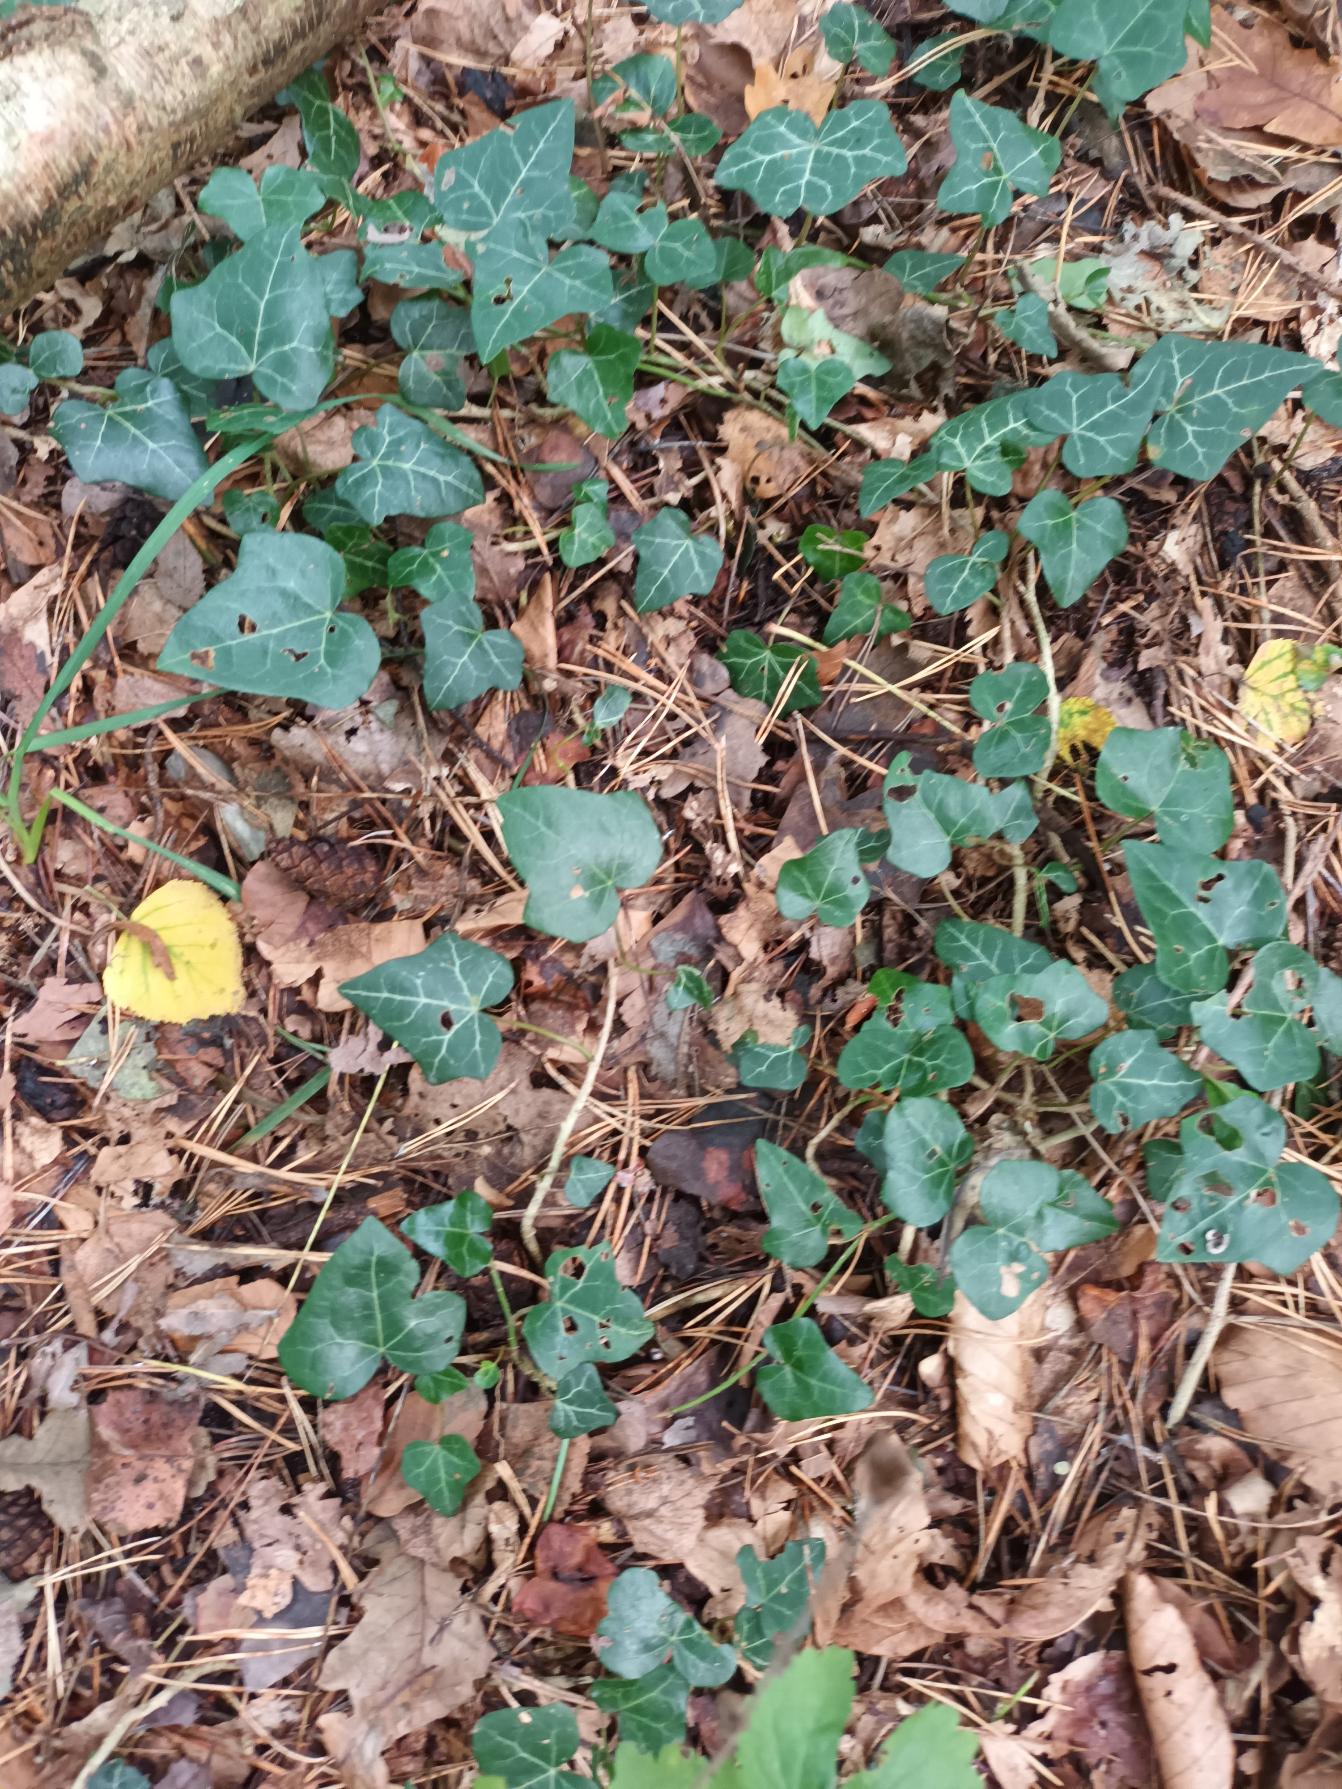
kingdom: Plantae
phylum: Tracheophyta
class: Magnoliopsida
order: Apiales
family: Araliaceae
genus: Hedera
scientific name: Hedera helix
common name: Vedbend
